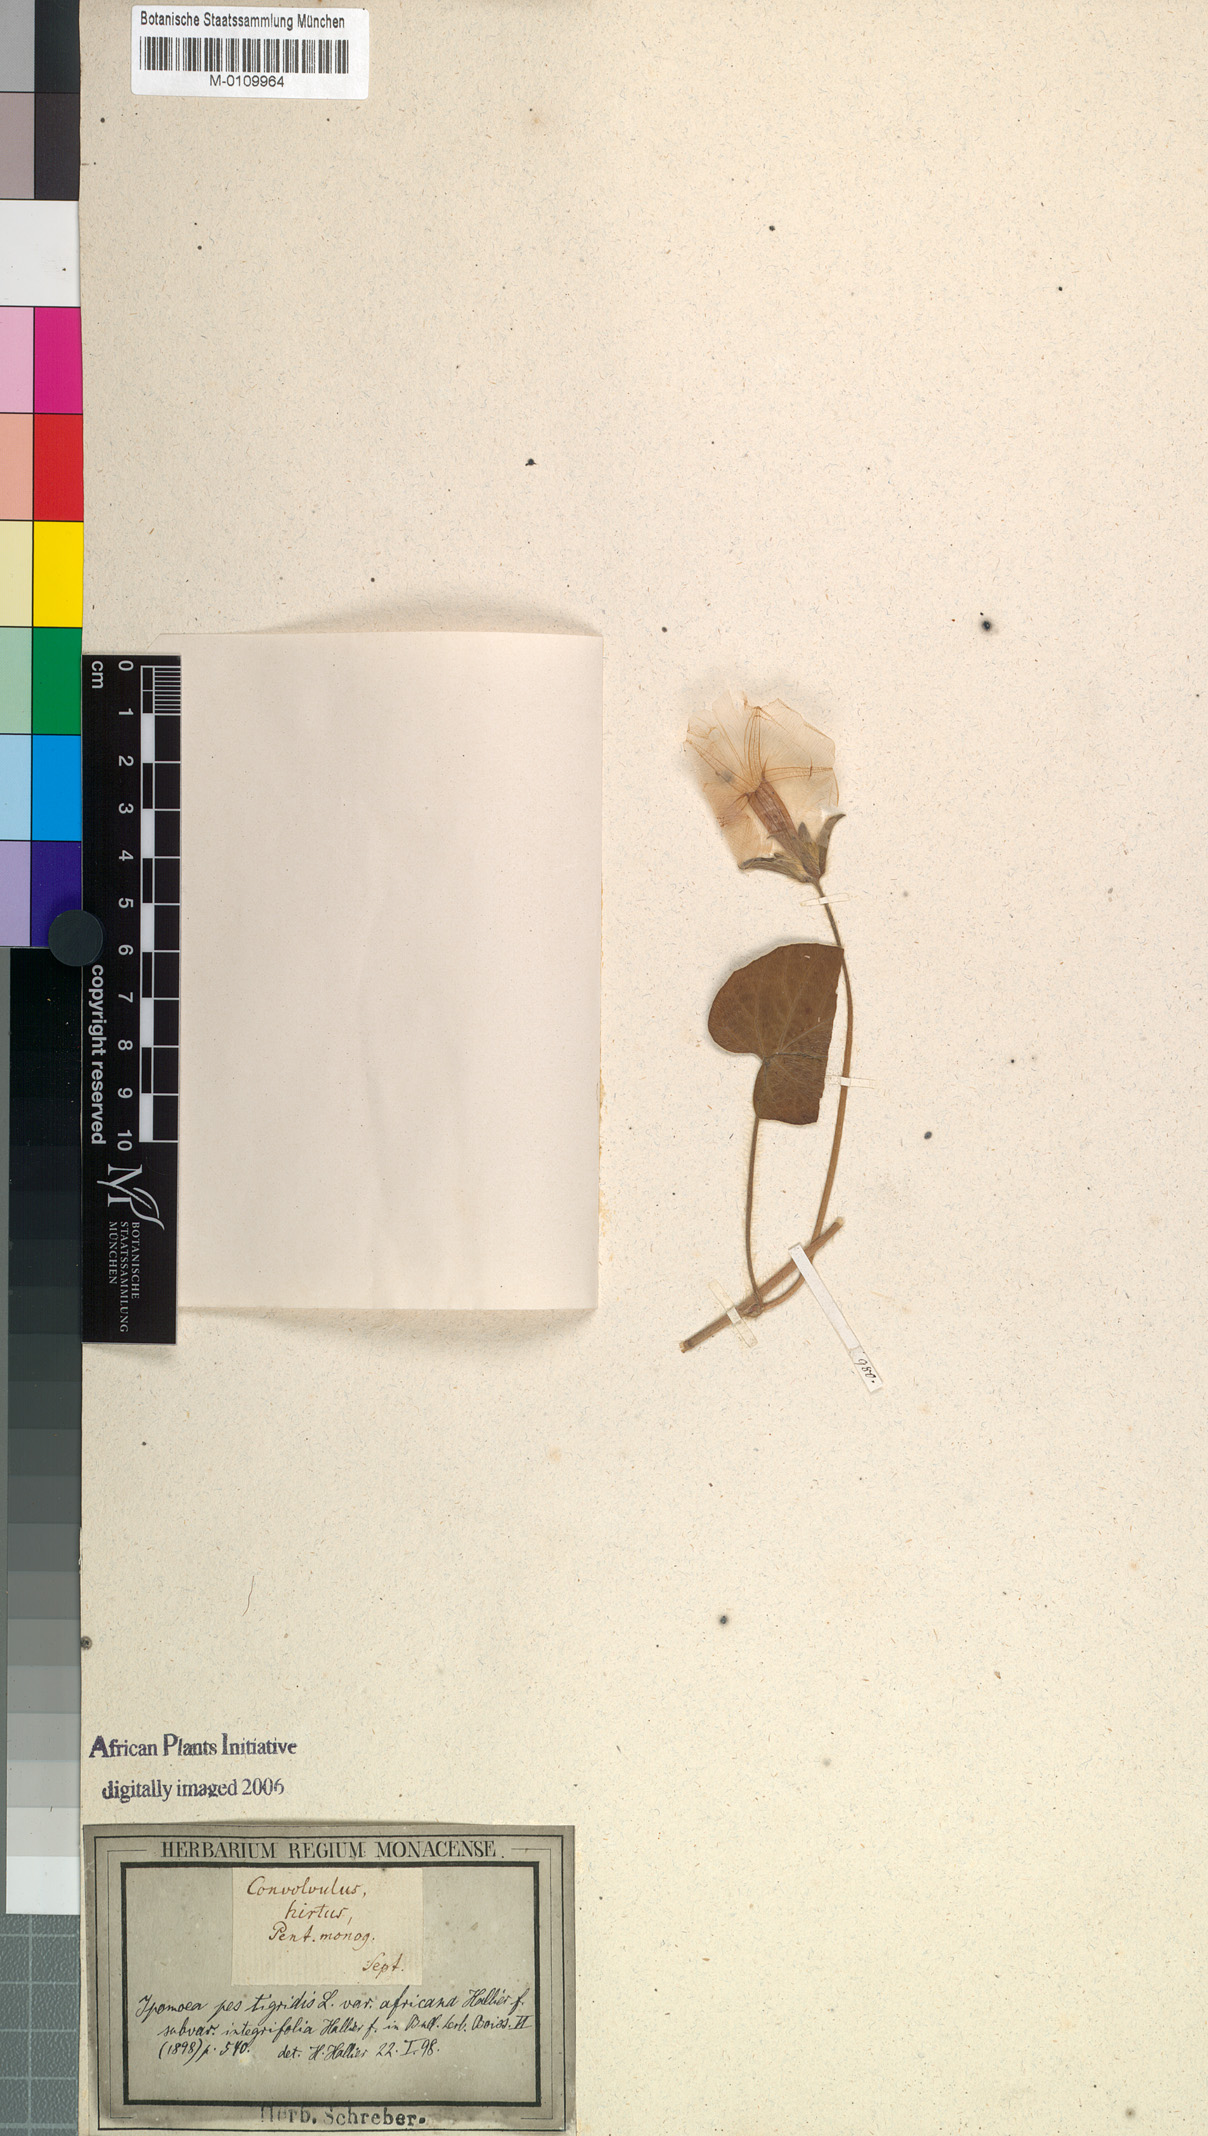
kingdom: Plantae
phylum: Tracheophyta
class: Magnoliopsida
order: Solanales
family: Convolvulaceae
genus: Ipomoea
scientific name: Ipomoea pes-tigridis
